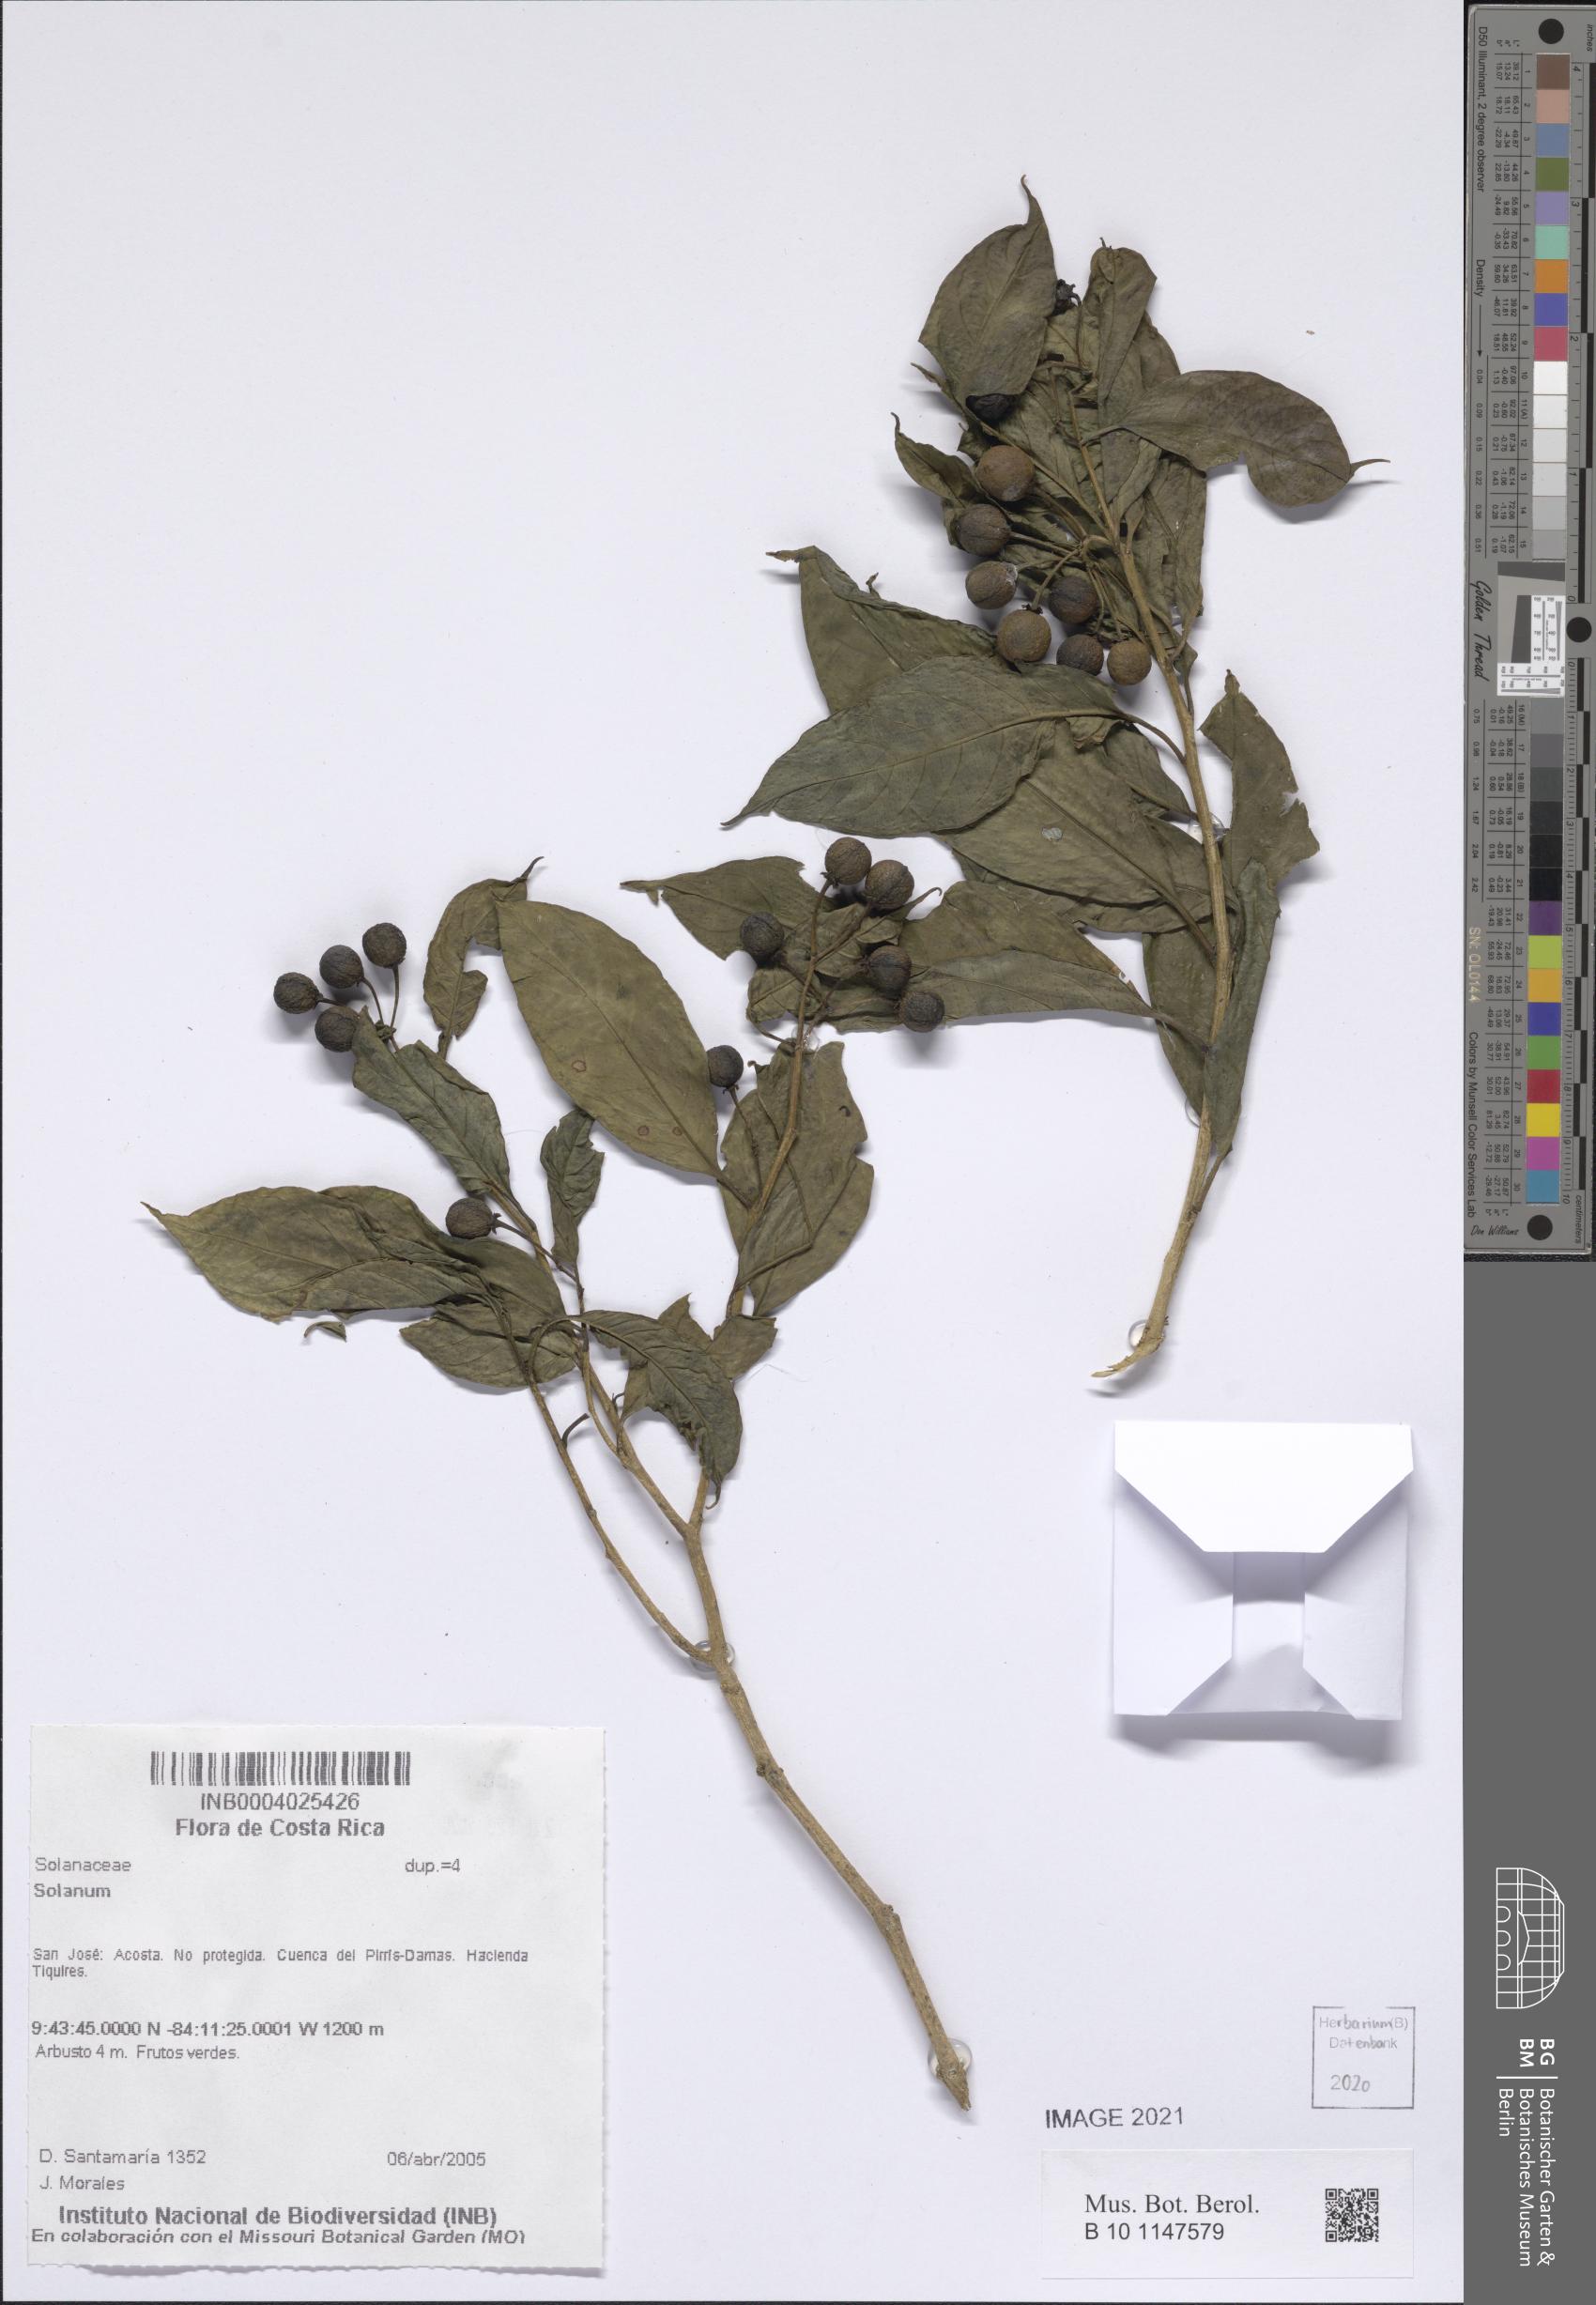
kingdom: Plantae
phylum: Tracheophyta
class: Magnoliopsida
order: Solanales
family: Solanaceae
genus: Solanum
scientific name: Solanum aphyodendron
